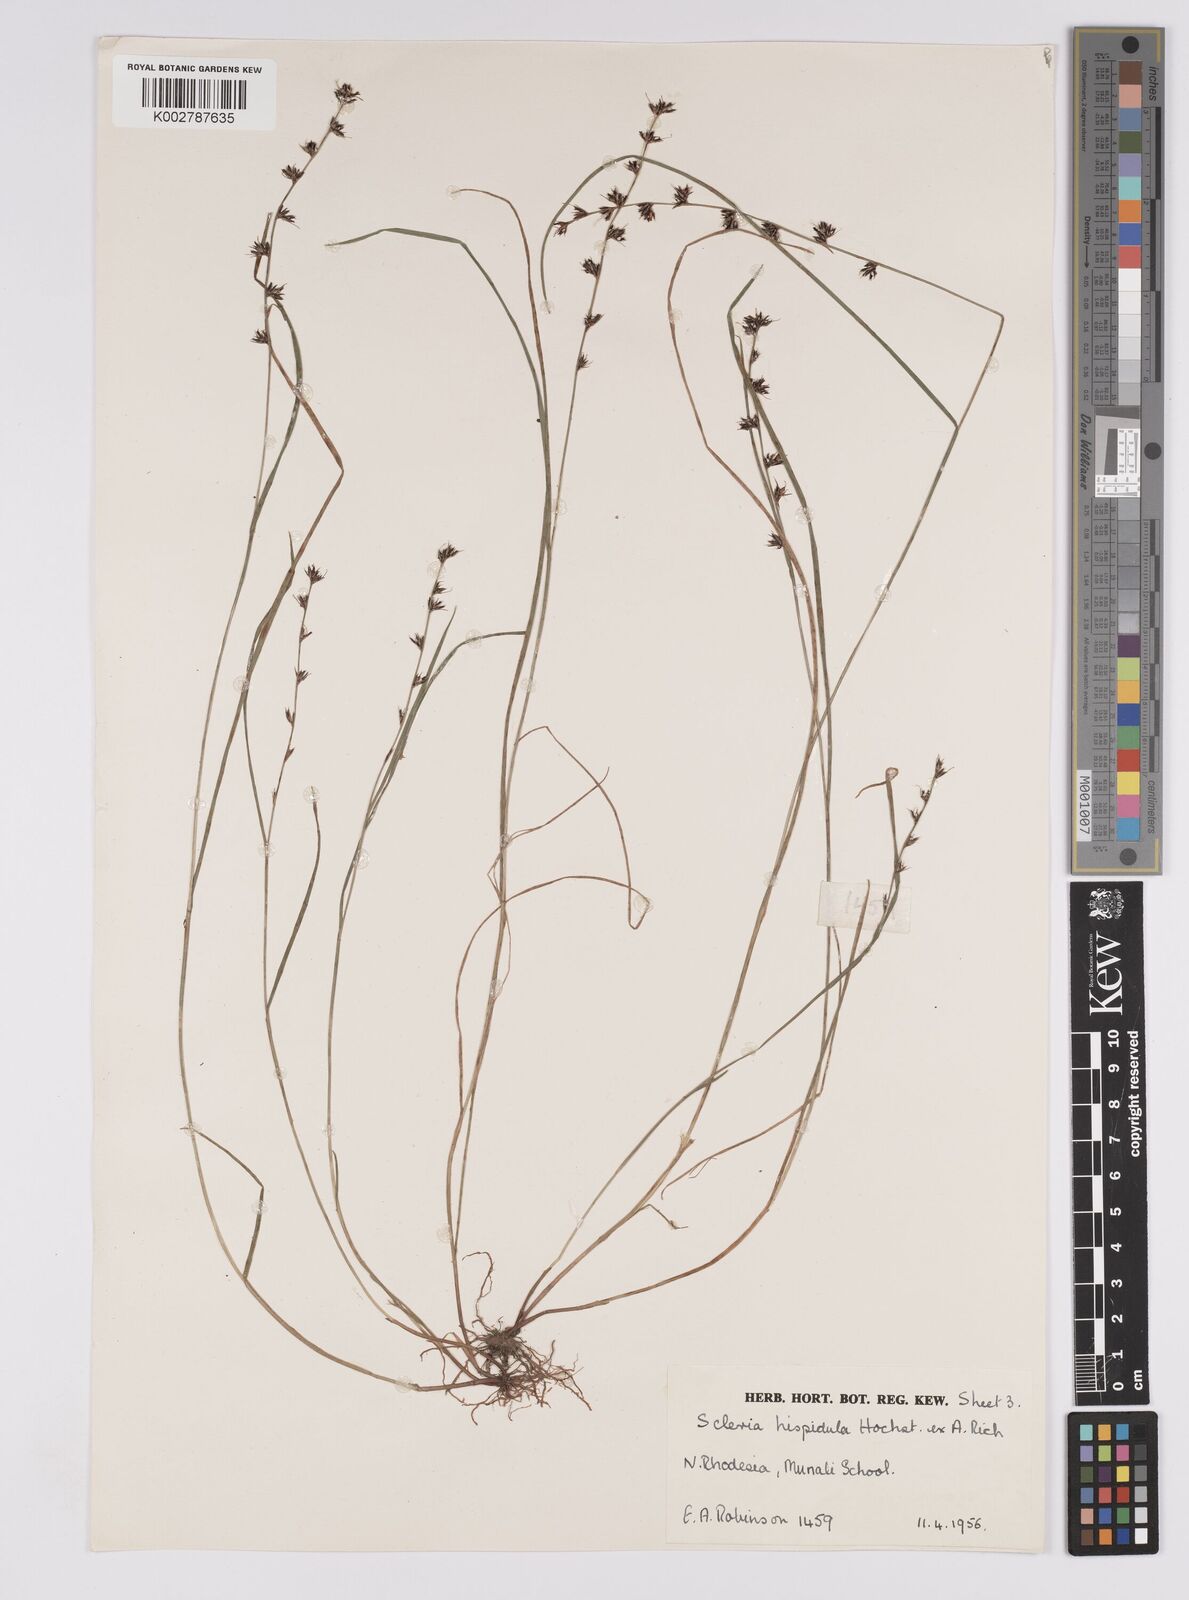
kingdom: Plantae
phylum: Tracheophyta
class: Liliopsida
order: Poales
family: Cyperaceae
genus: Scleria
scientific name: Scleria hispidula
